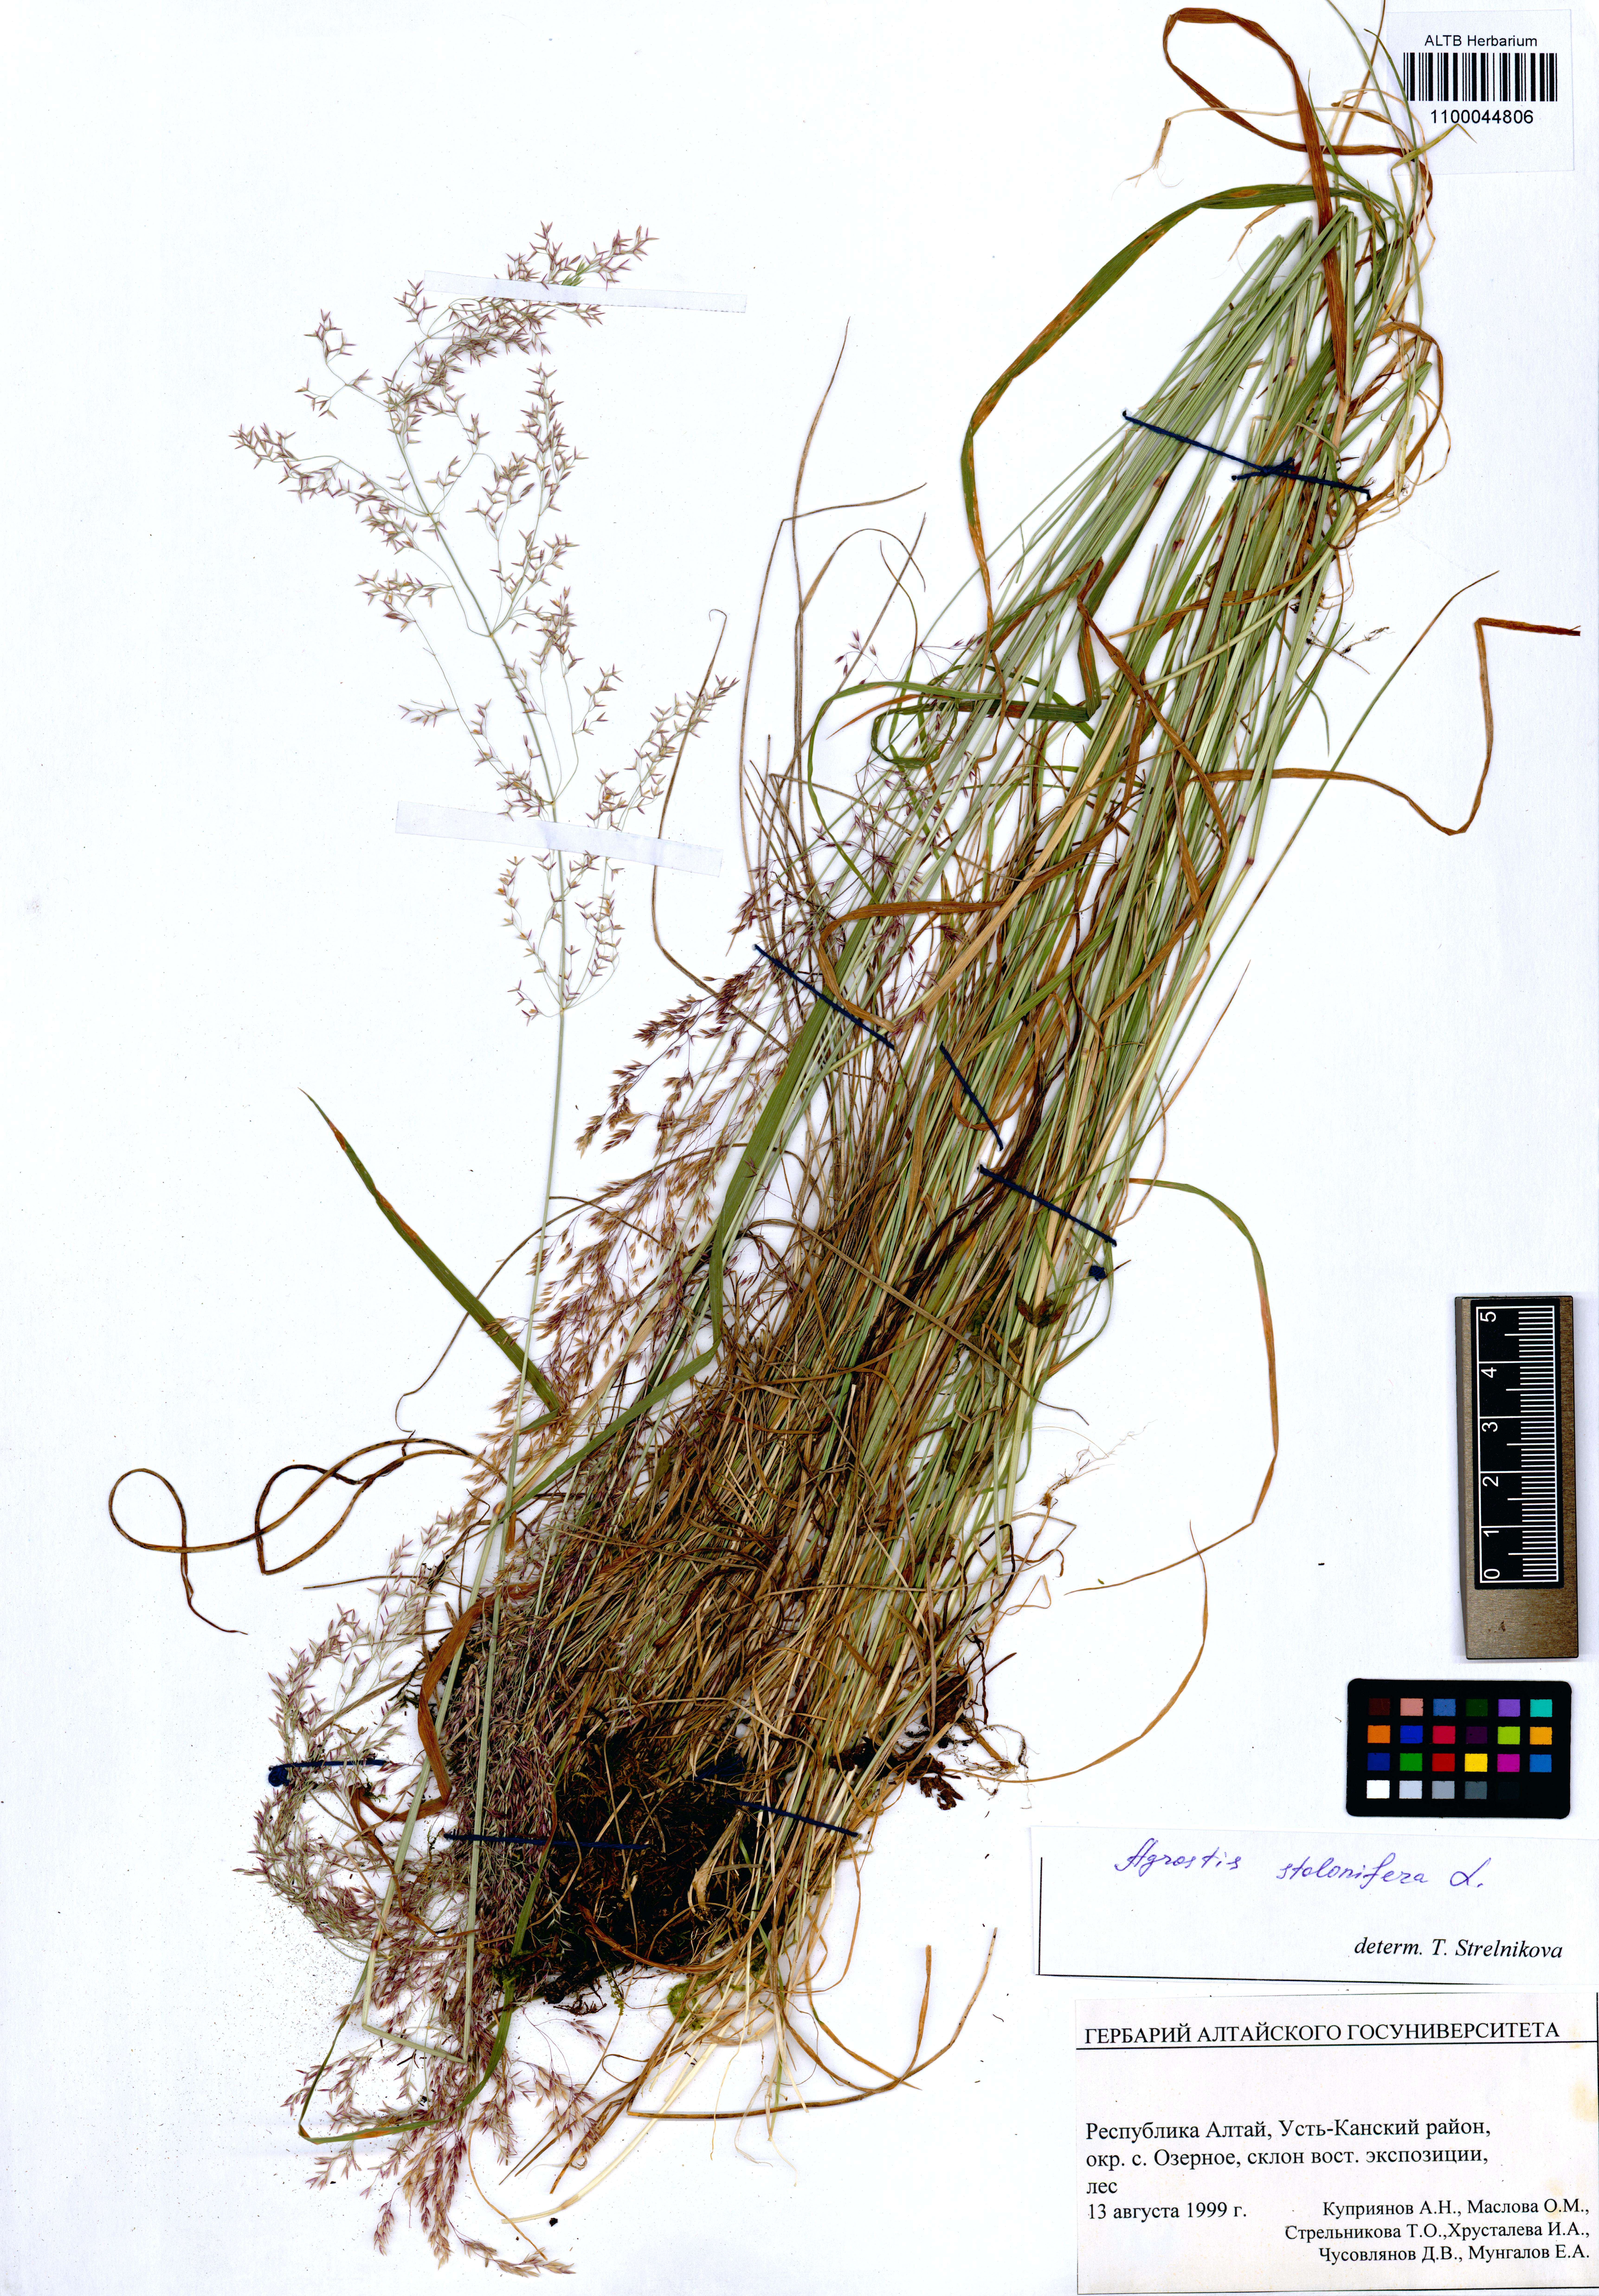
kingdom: Plantae
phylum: Tracheophyta
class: Liliopsida
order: Poales
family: Poaceae
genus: Agrostis
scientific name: Agrostis stolonifera
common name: Creeping bentgrass
